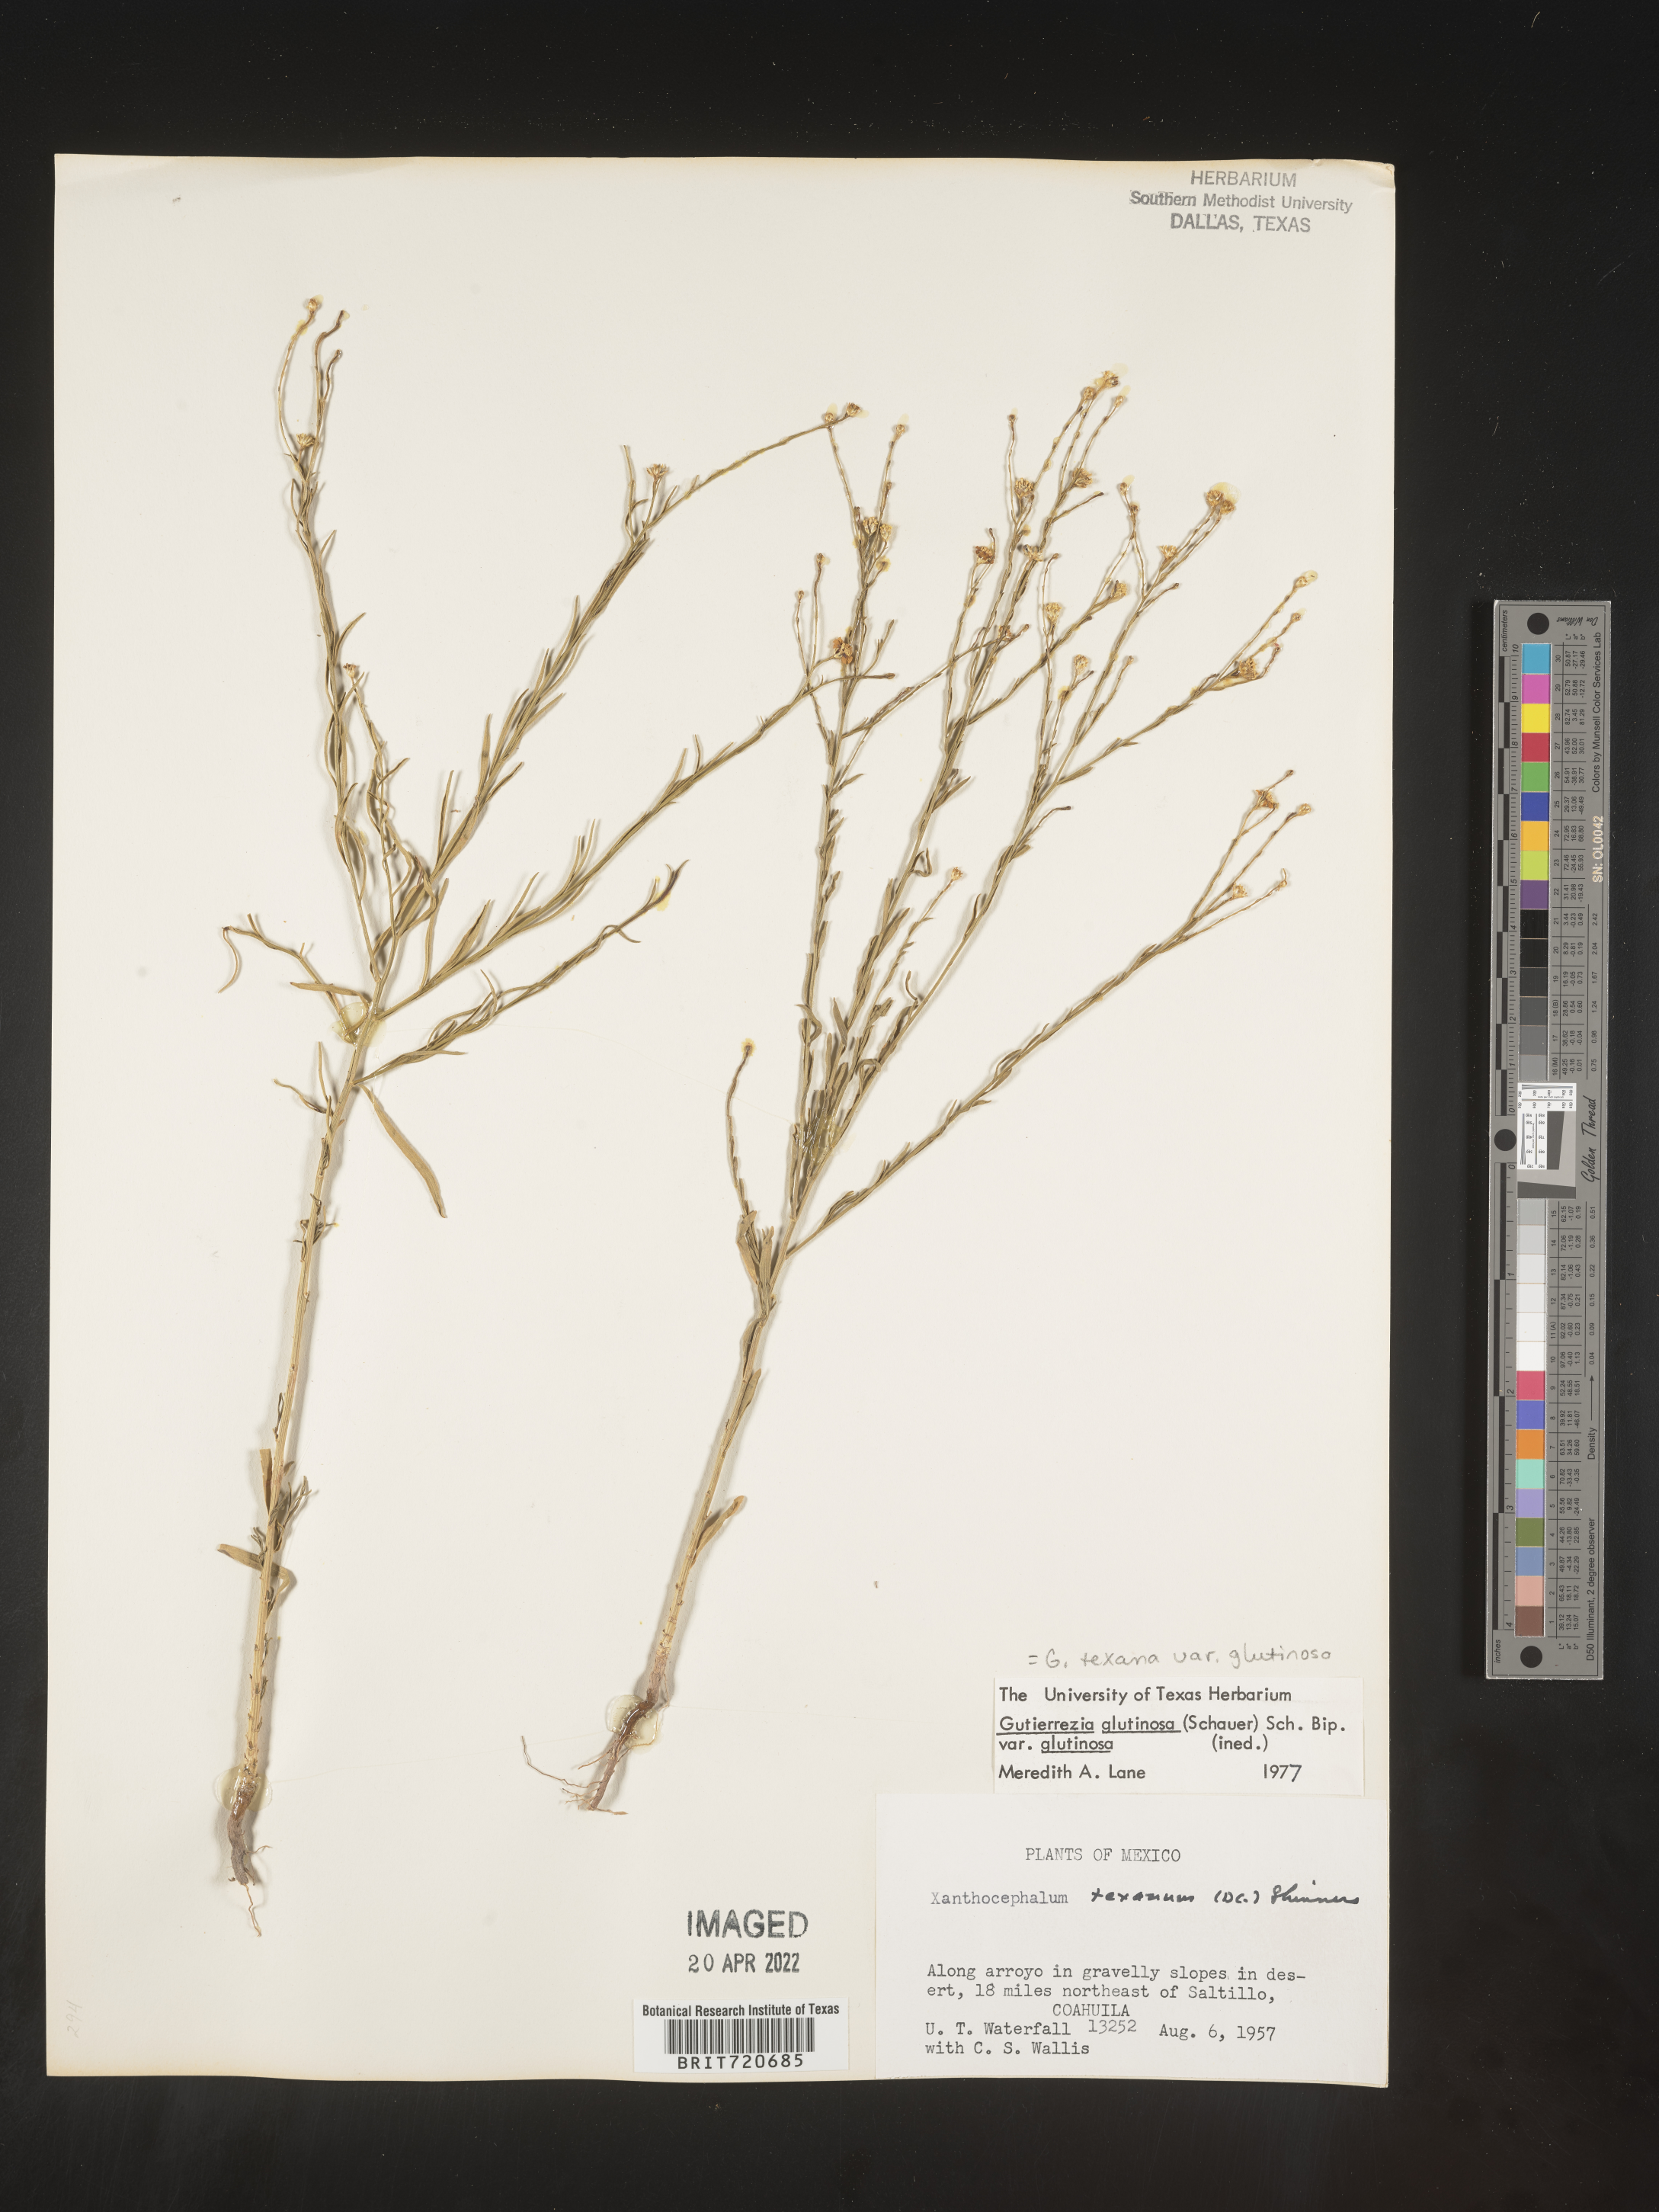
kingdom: Plantae
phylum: Tracheophyta
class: Magnoliopsida
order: Asterales
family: Asteraceae
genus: Gutierrezia
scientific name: Gutierrezia texana
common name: Texas snakeweed
